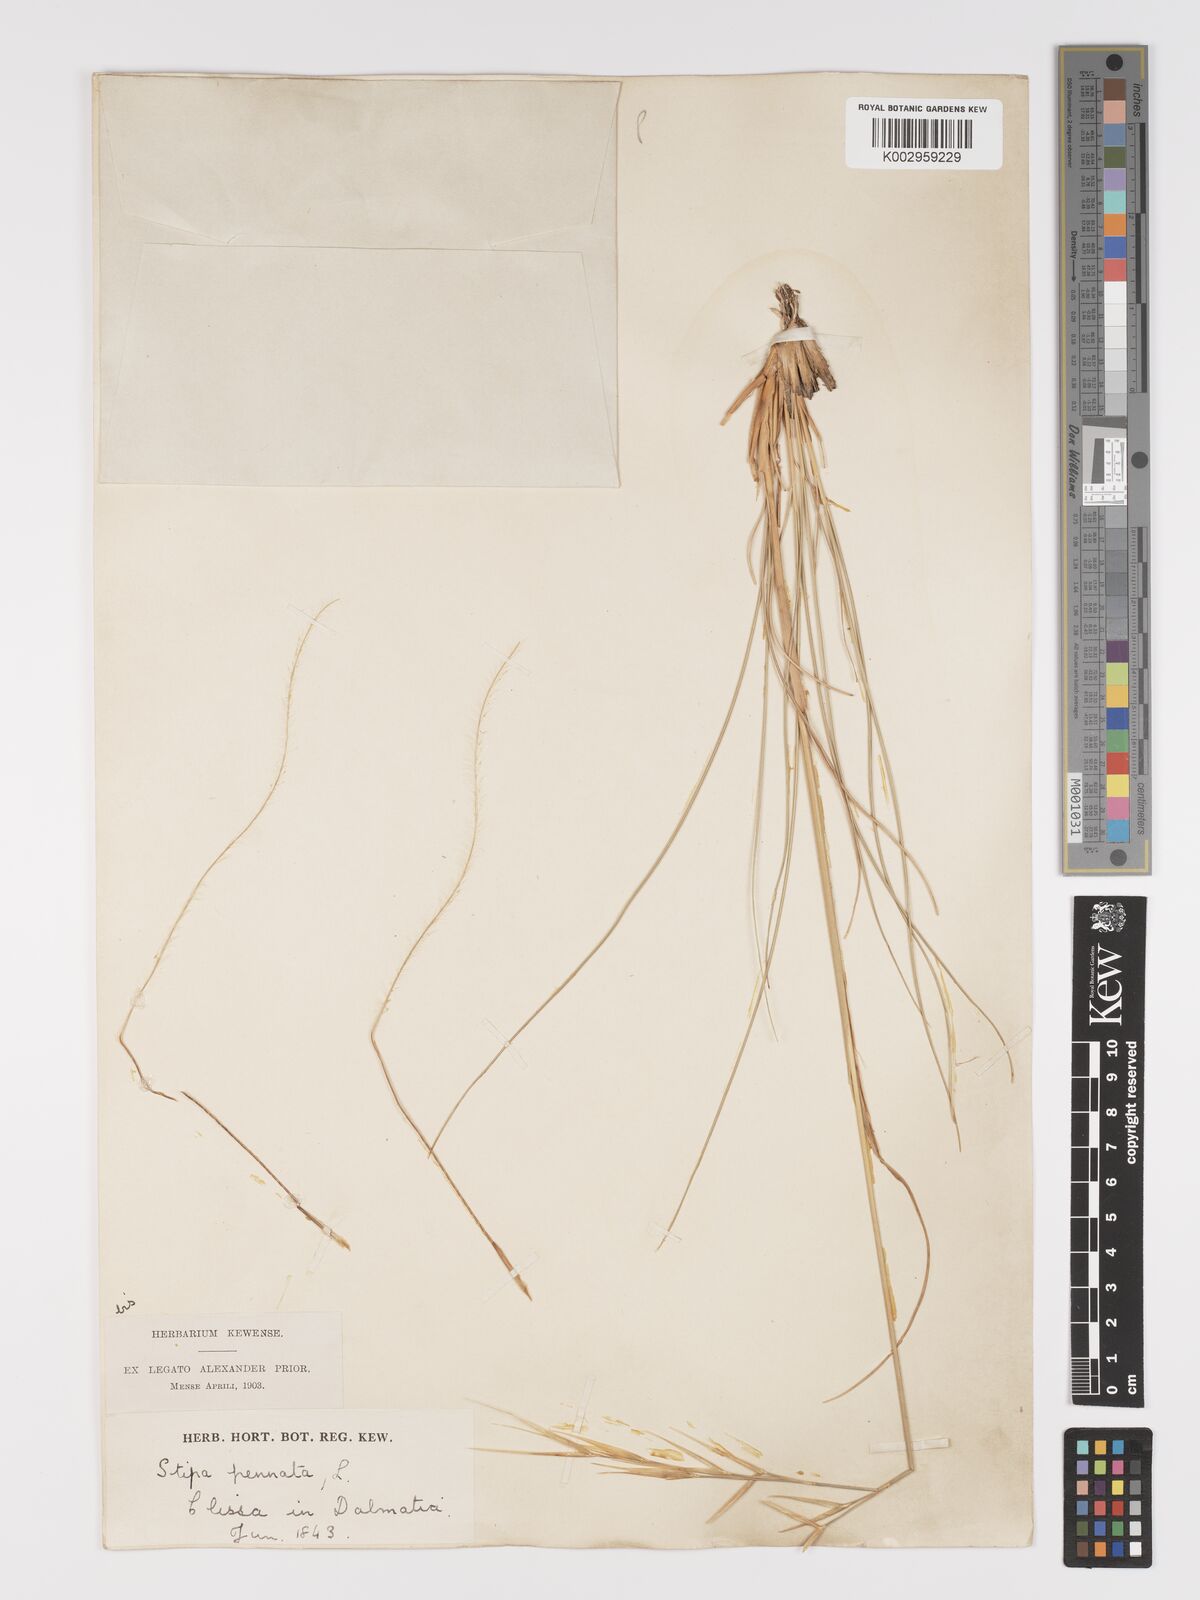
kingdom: Plantae
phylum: Tracheophyta
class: Liliopsida
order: Poales
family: Poaceae
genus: Stipa
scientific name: Stipa pennata
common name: European feather grass
